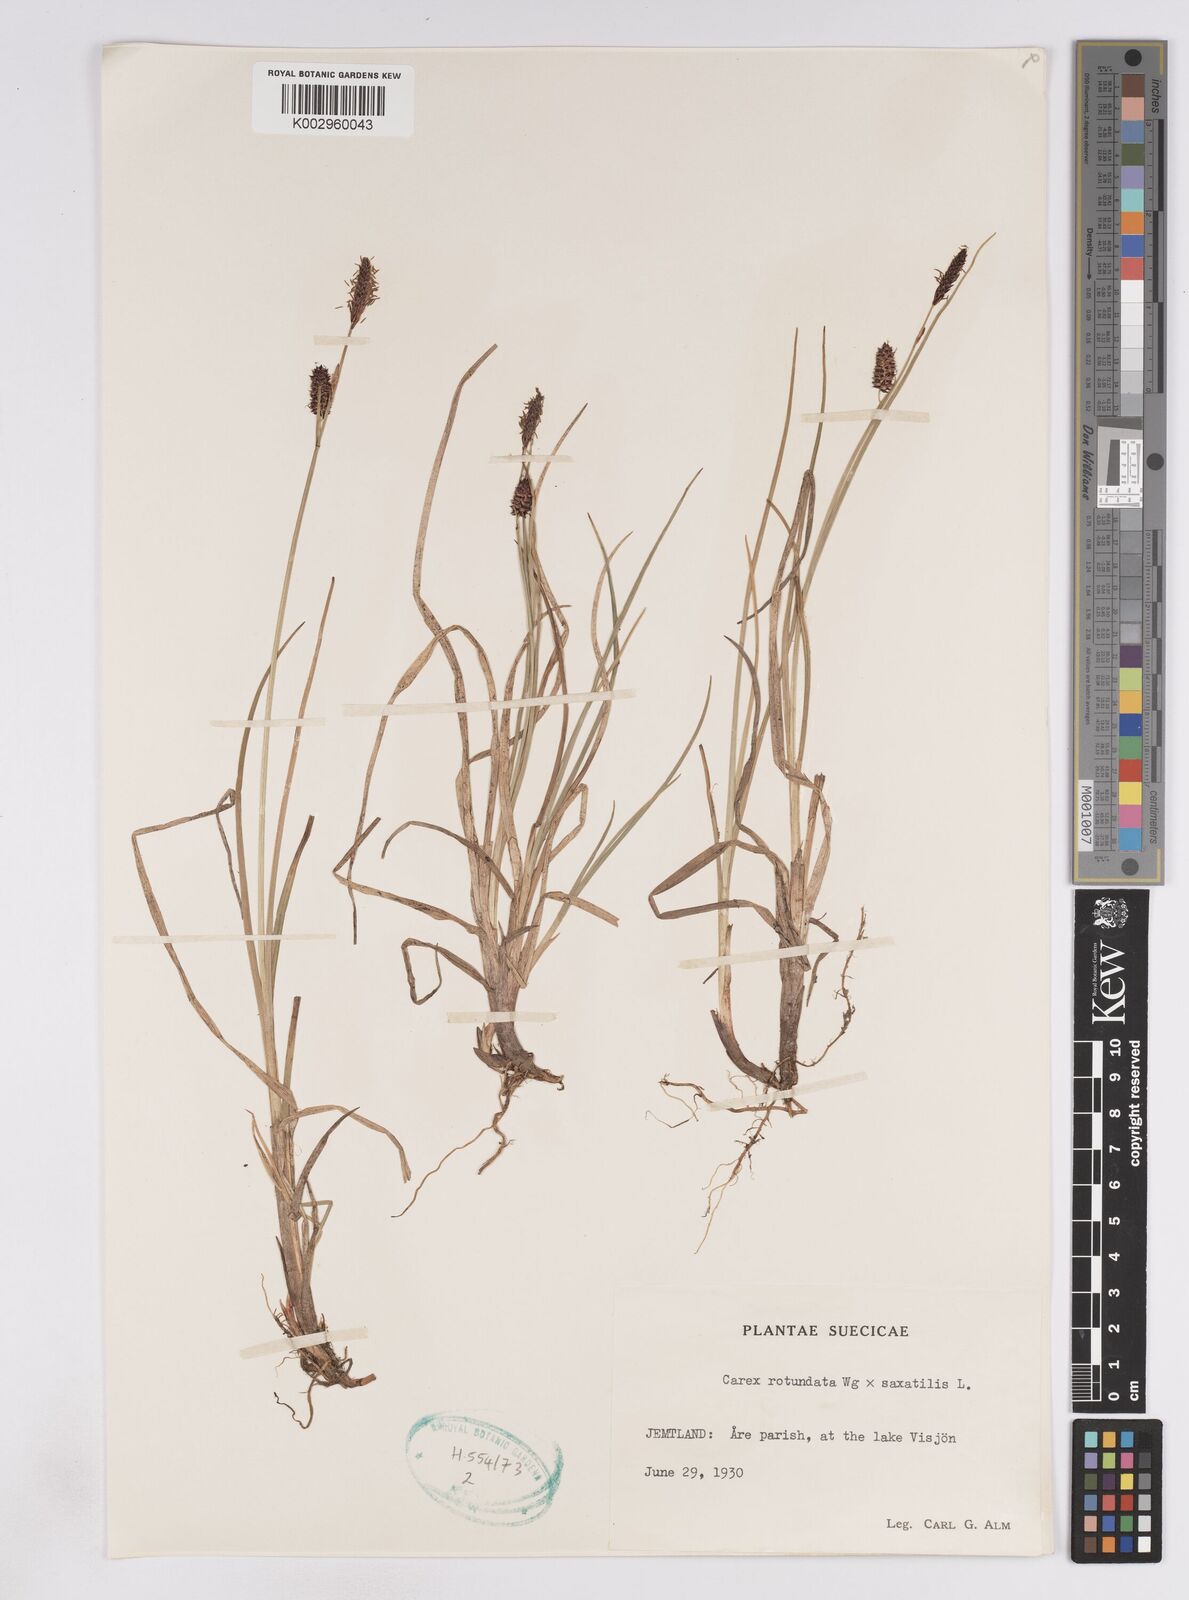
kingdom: Plantae
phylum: Tracheophyta
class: Liliopsida
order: Poales
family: Cyperaceae
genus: Carex
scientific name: Carex
